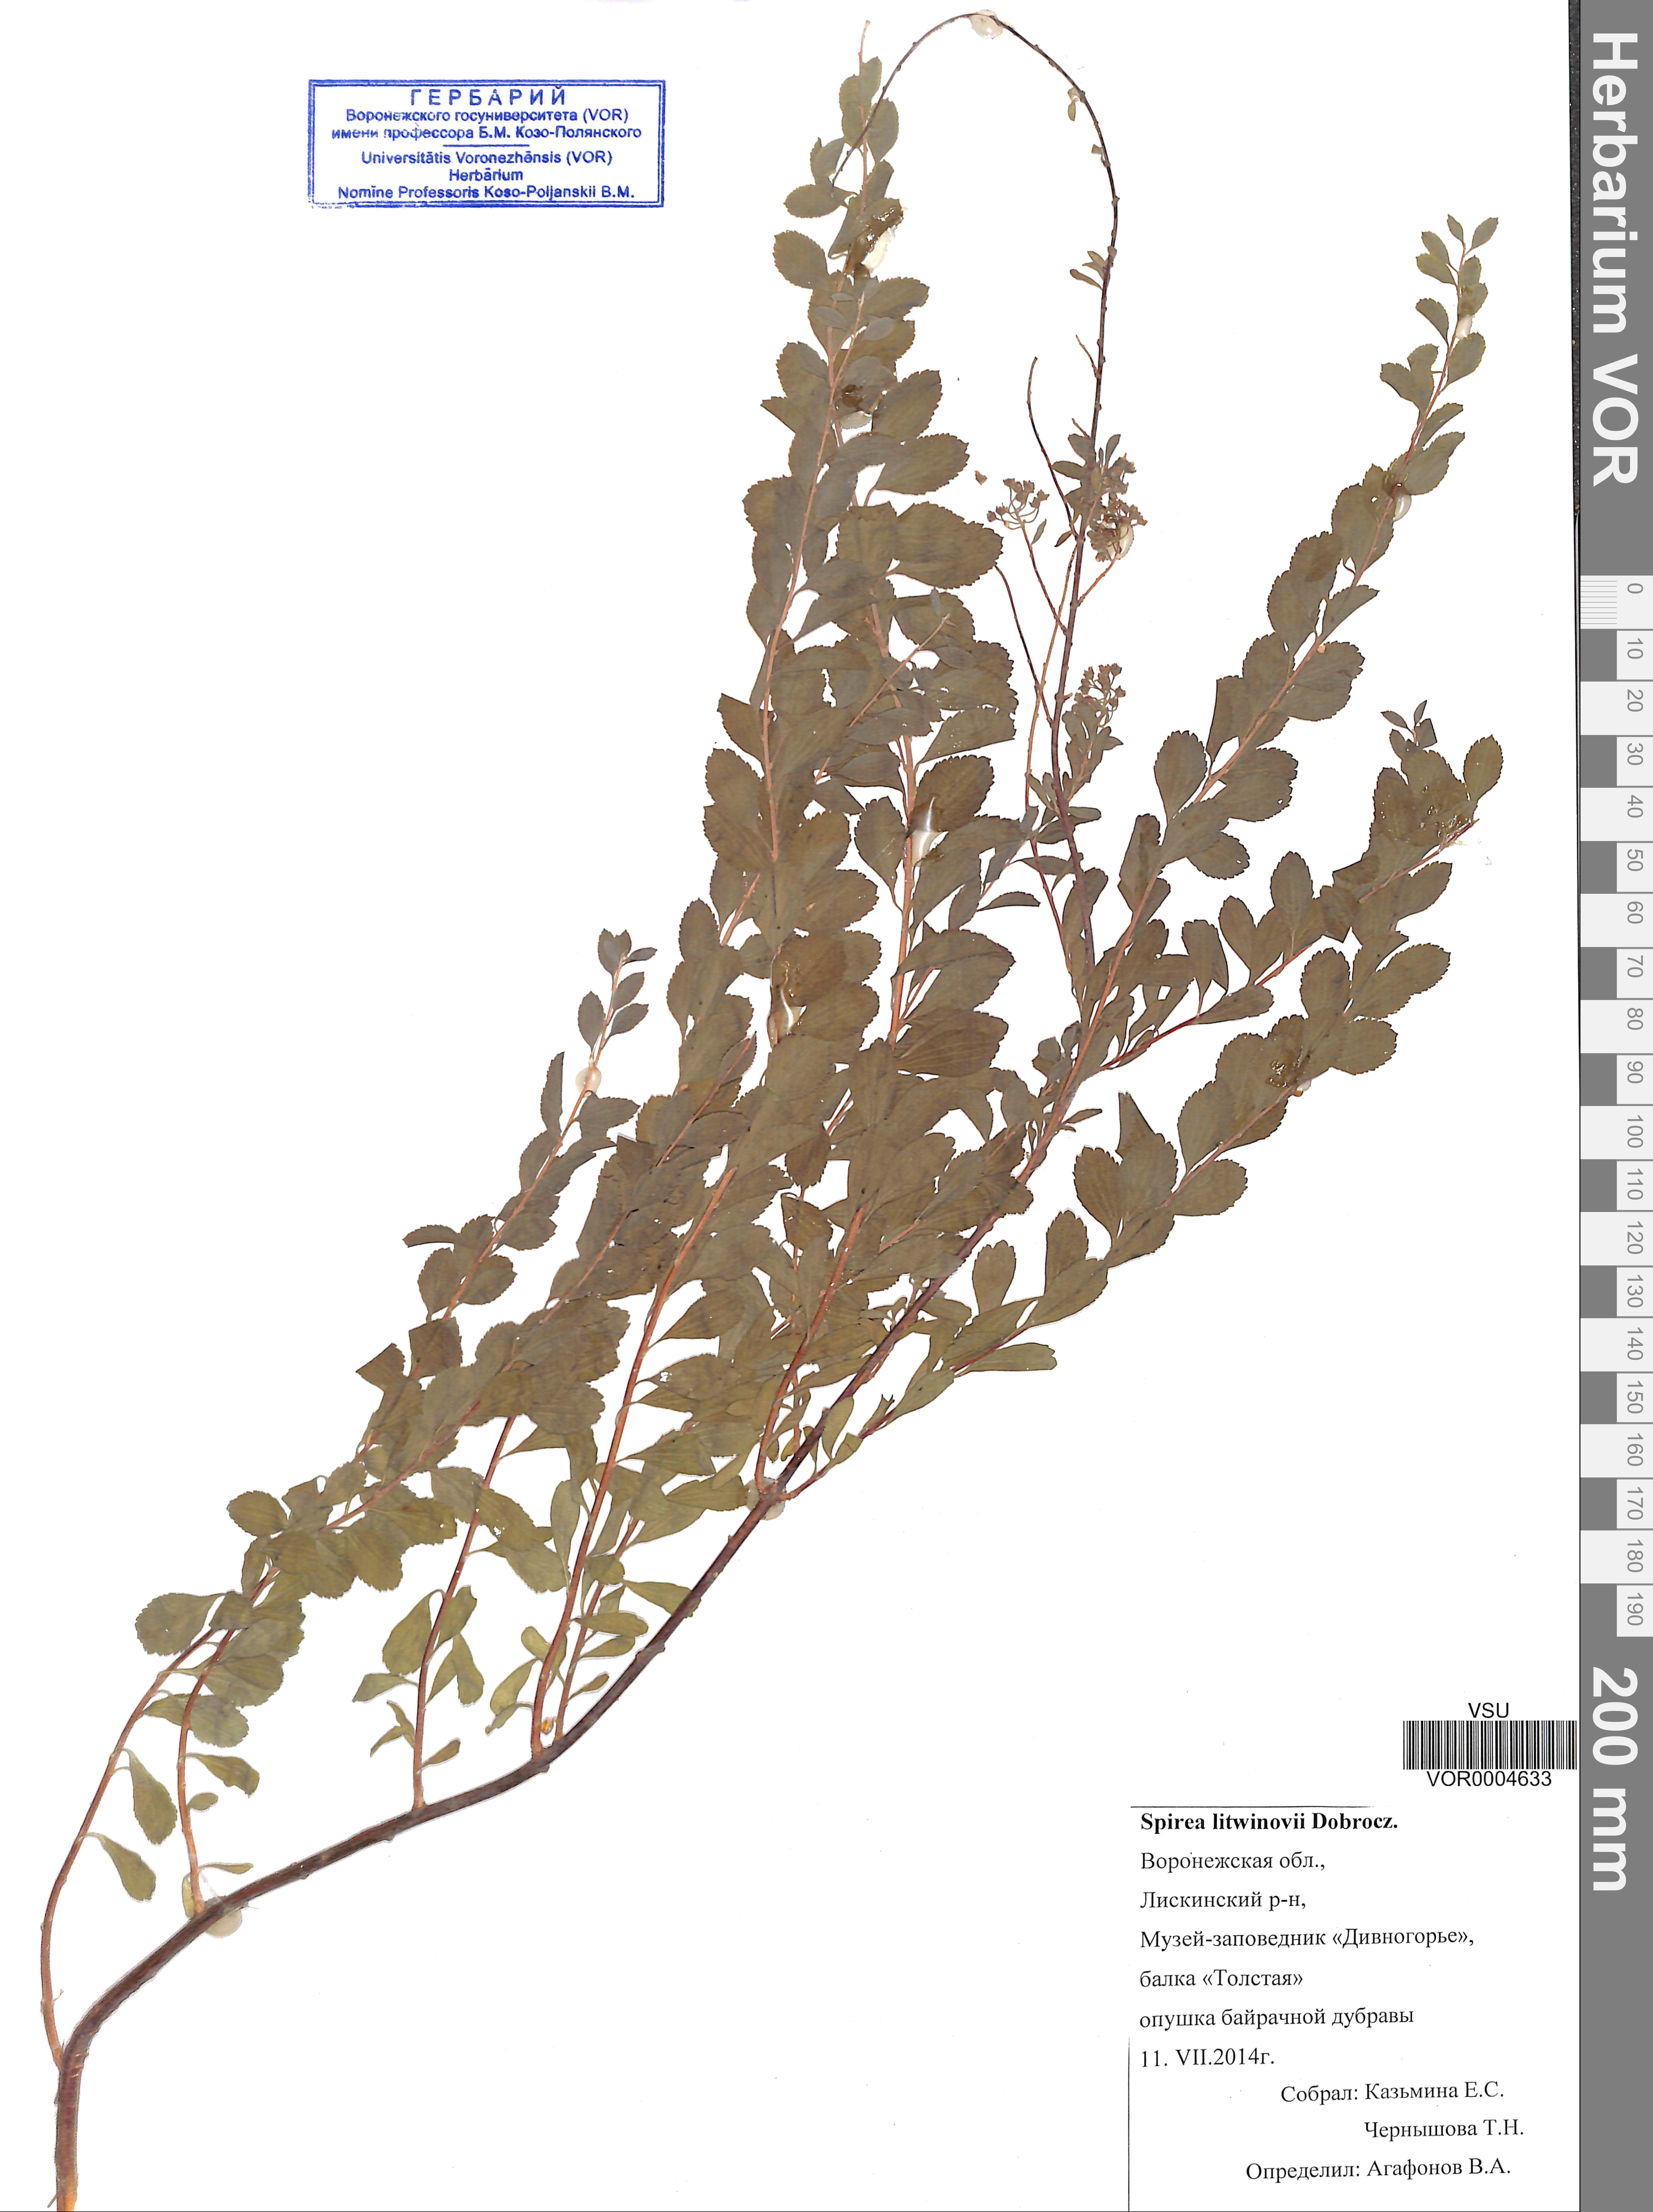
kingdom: Plantae
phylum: Tracheophyta
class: Magnoliopsida
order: Rosales
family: Rosaceae
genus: Spiraea
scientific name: Spiraea crenata
